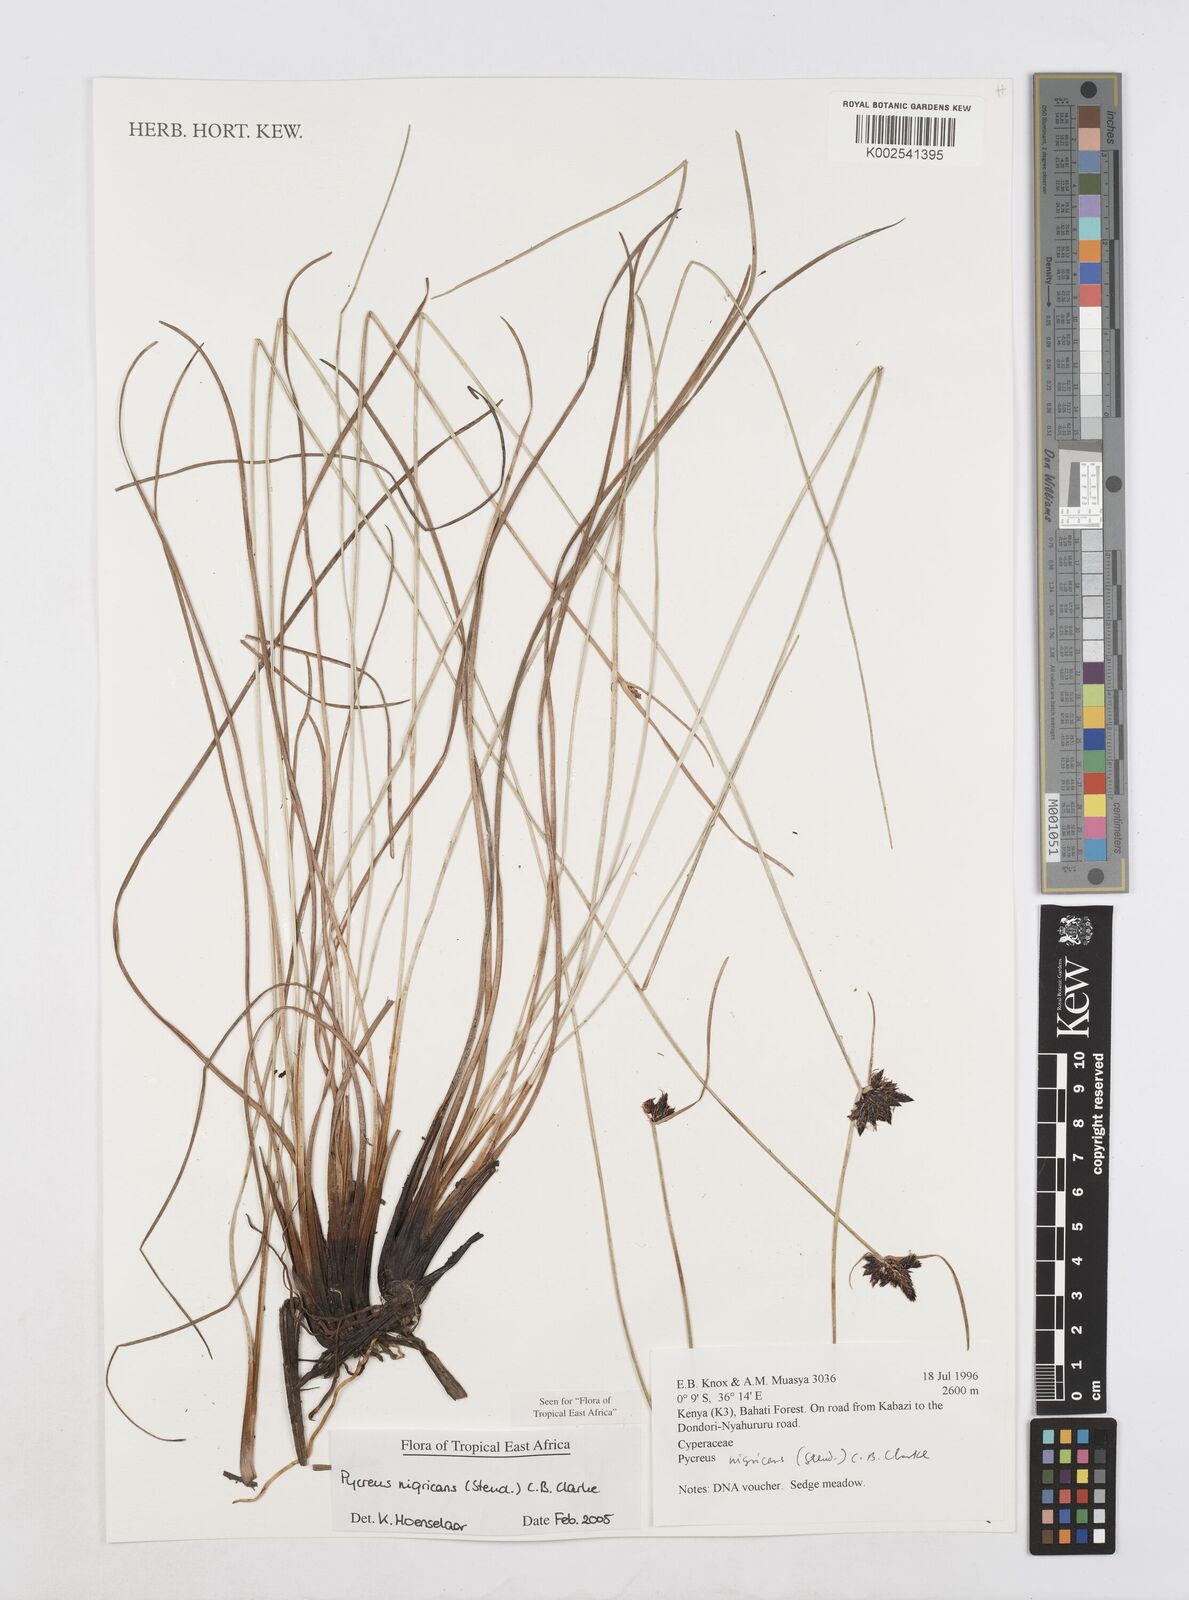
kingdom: Plantae
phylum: Tracheophyta
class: Liliopsida
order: Poales
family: Cyperaceae
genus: Cyperus
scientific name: Cyperus nigricans
